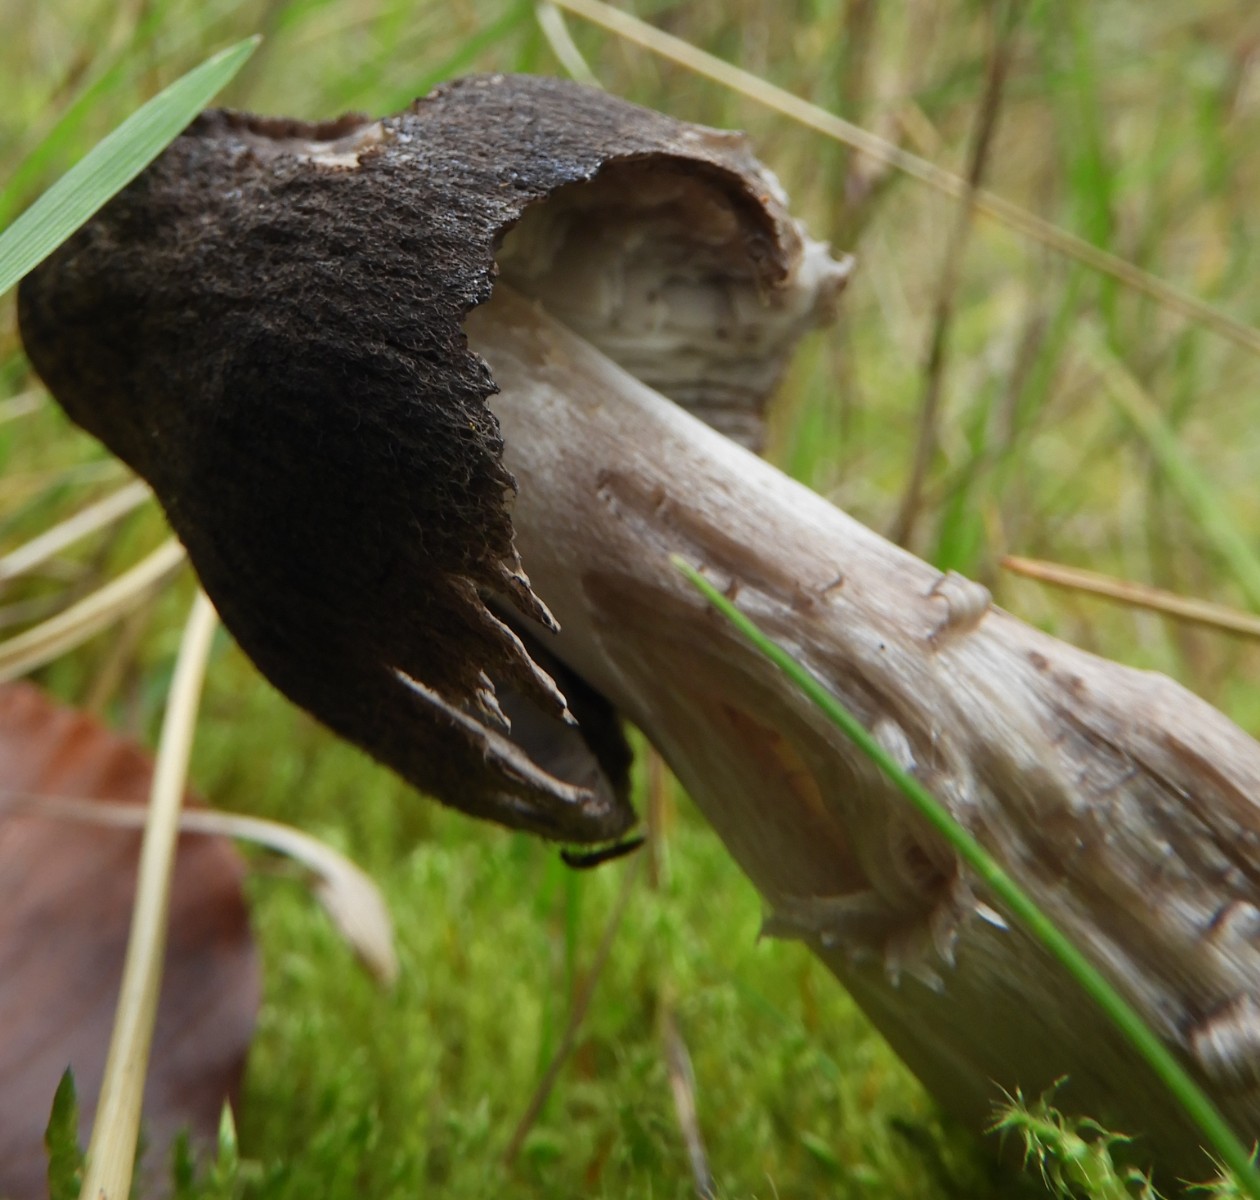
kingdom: Fungi
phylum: Basidiomycota
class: Agaricomycetes
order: Agaricales
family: Tricholomataceae
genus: Tricholoma
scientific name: Tricholoma terreum
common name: jordfarvet ridderhat
